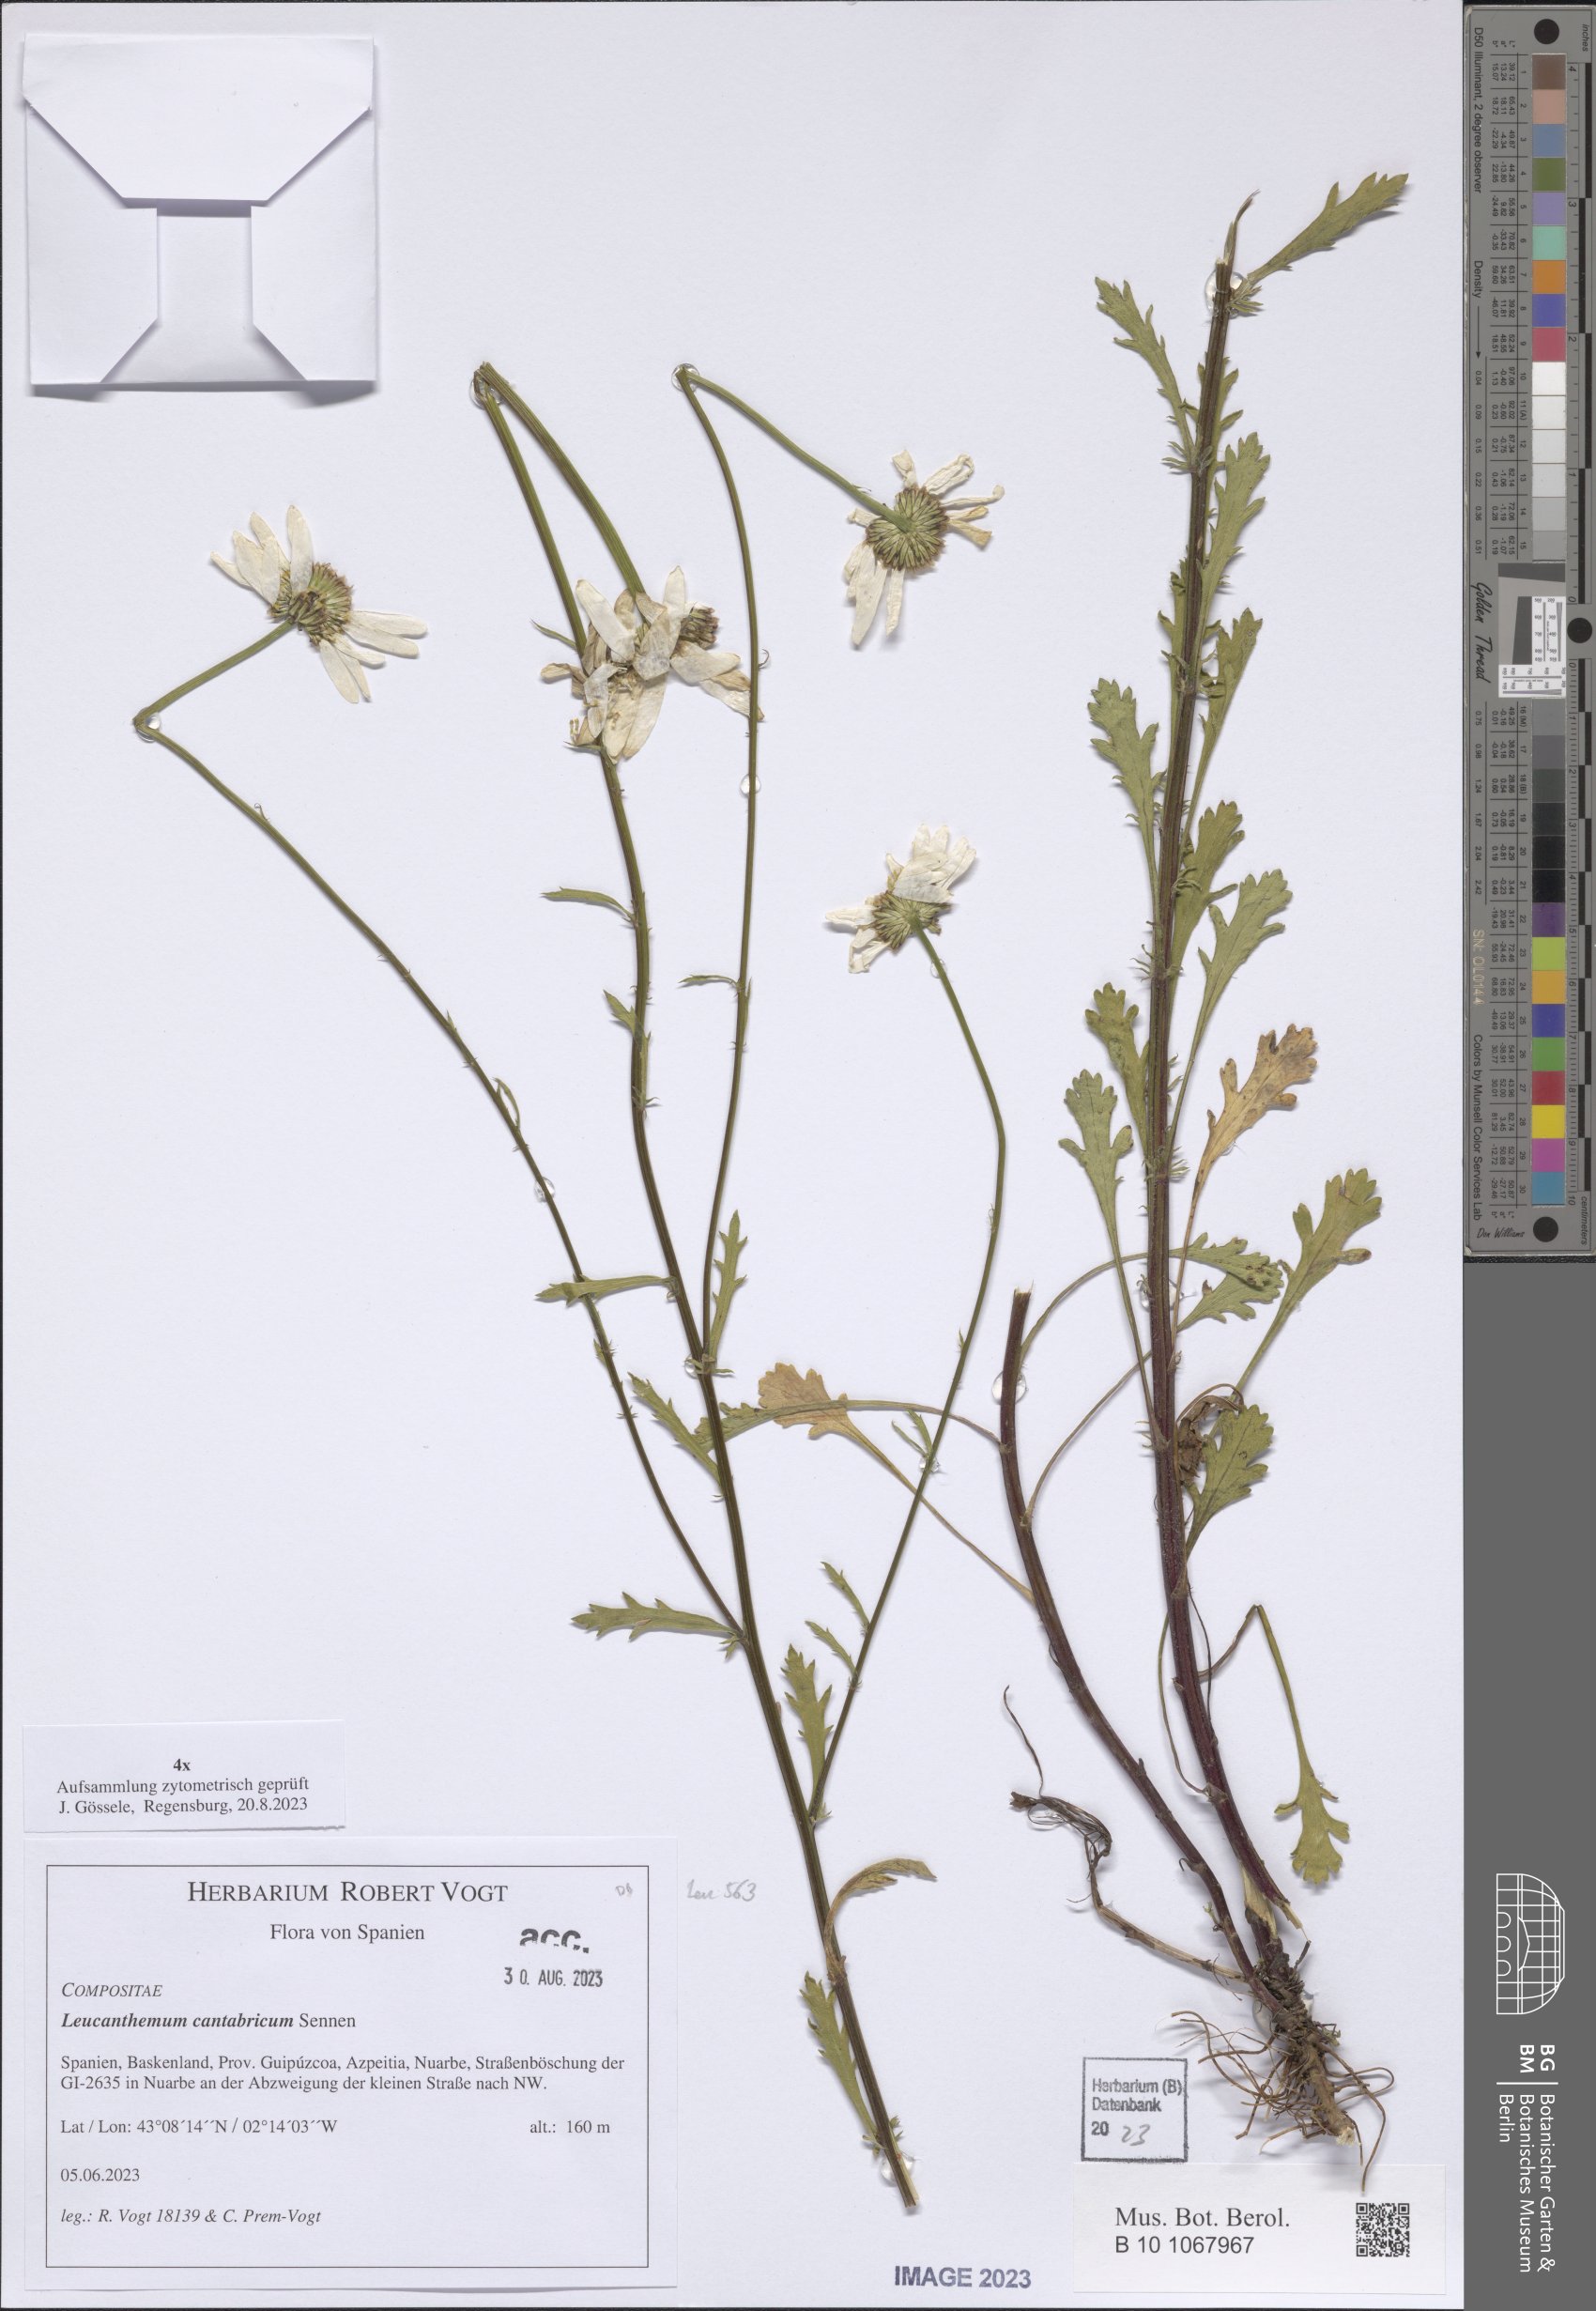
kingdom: Plantae
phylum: Tracheophyta
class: Magnoliopsida
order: Asterales
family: Asteraceae
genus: Leucanthemum
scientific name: Leucanthemum cantabricum
